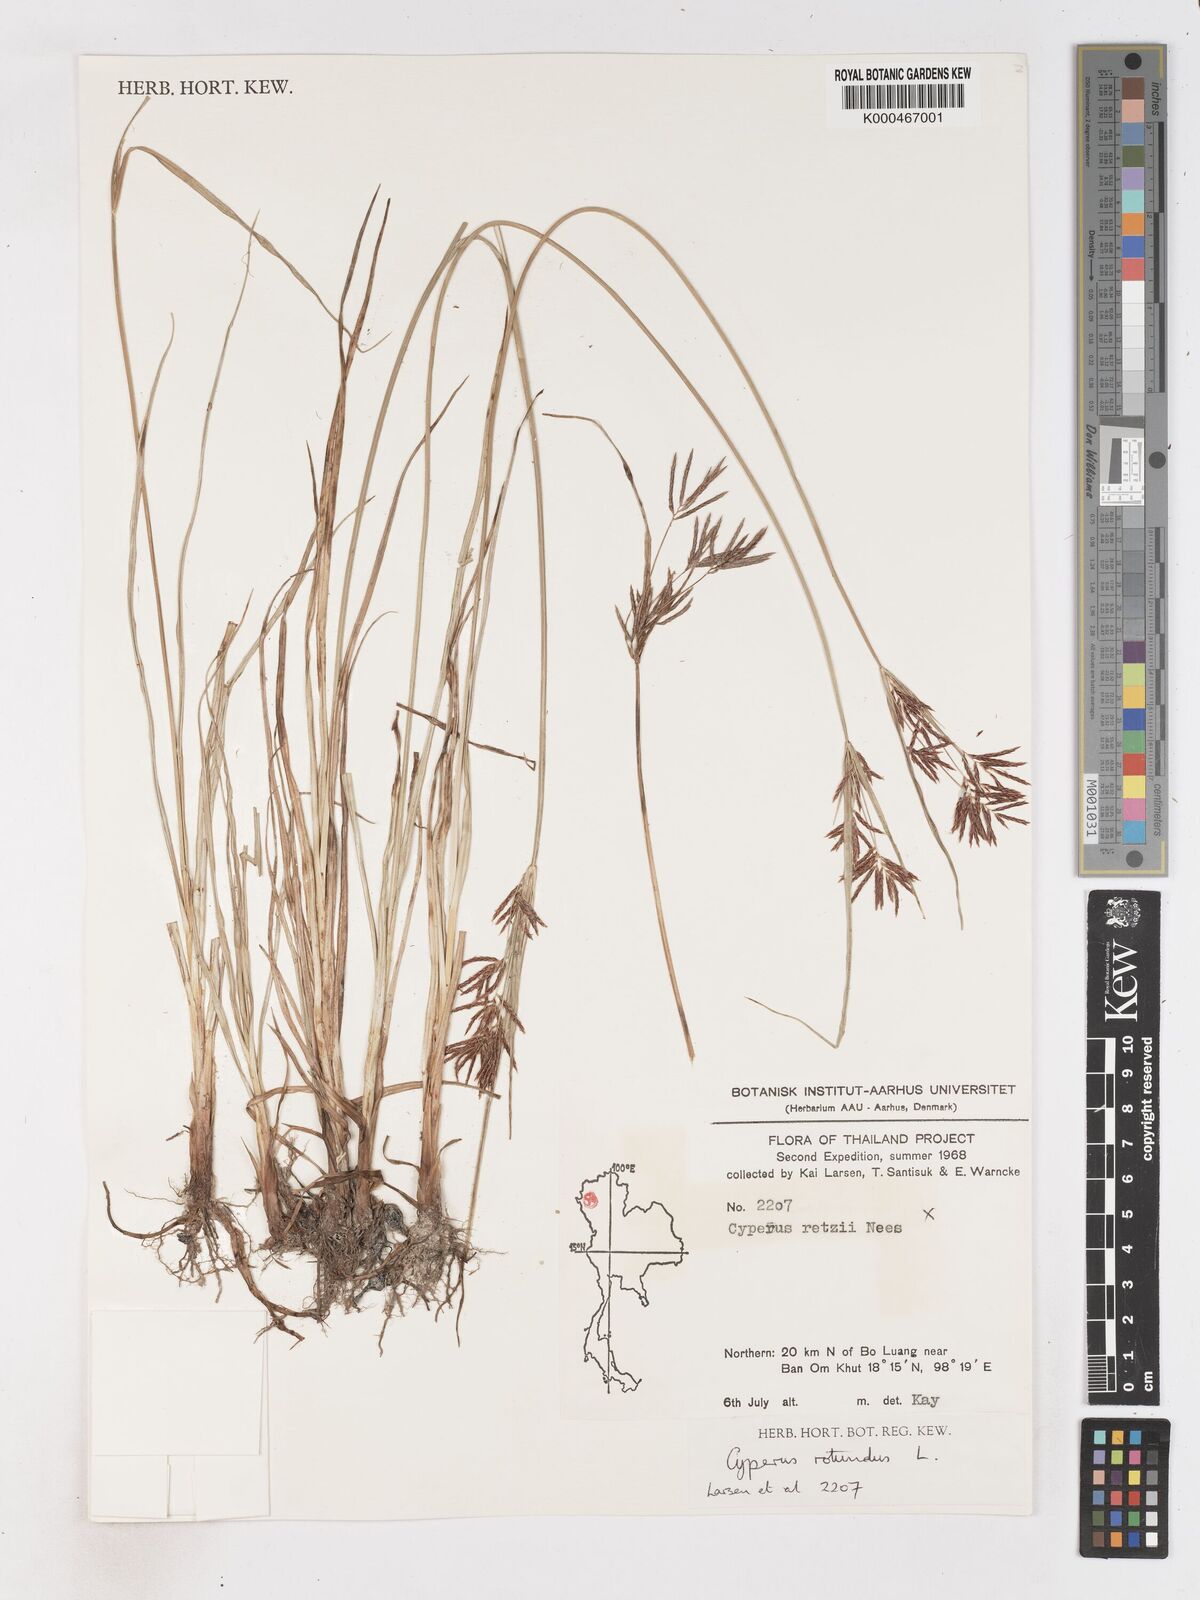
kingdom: Plantae
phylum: Tracheophyta
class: Liliopsida
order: Poales
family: Cyperaceae
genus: Cyperus
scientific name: Cyperus rotundus
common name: Nutgrass
